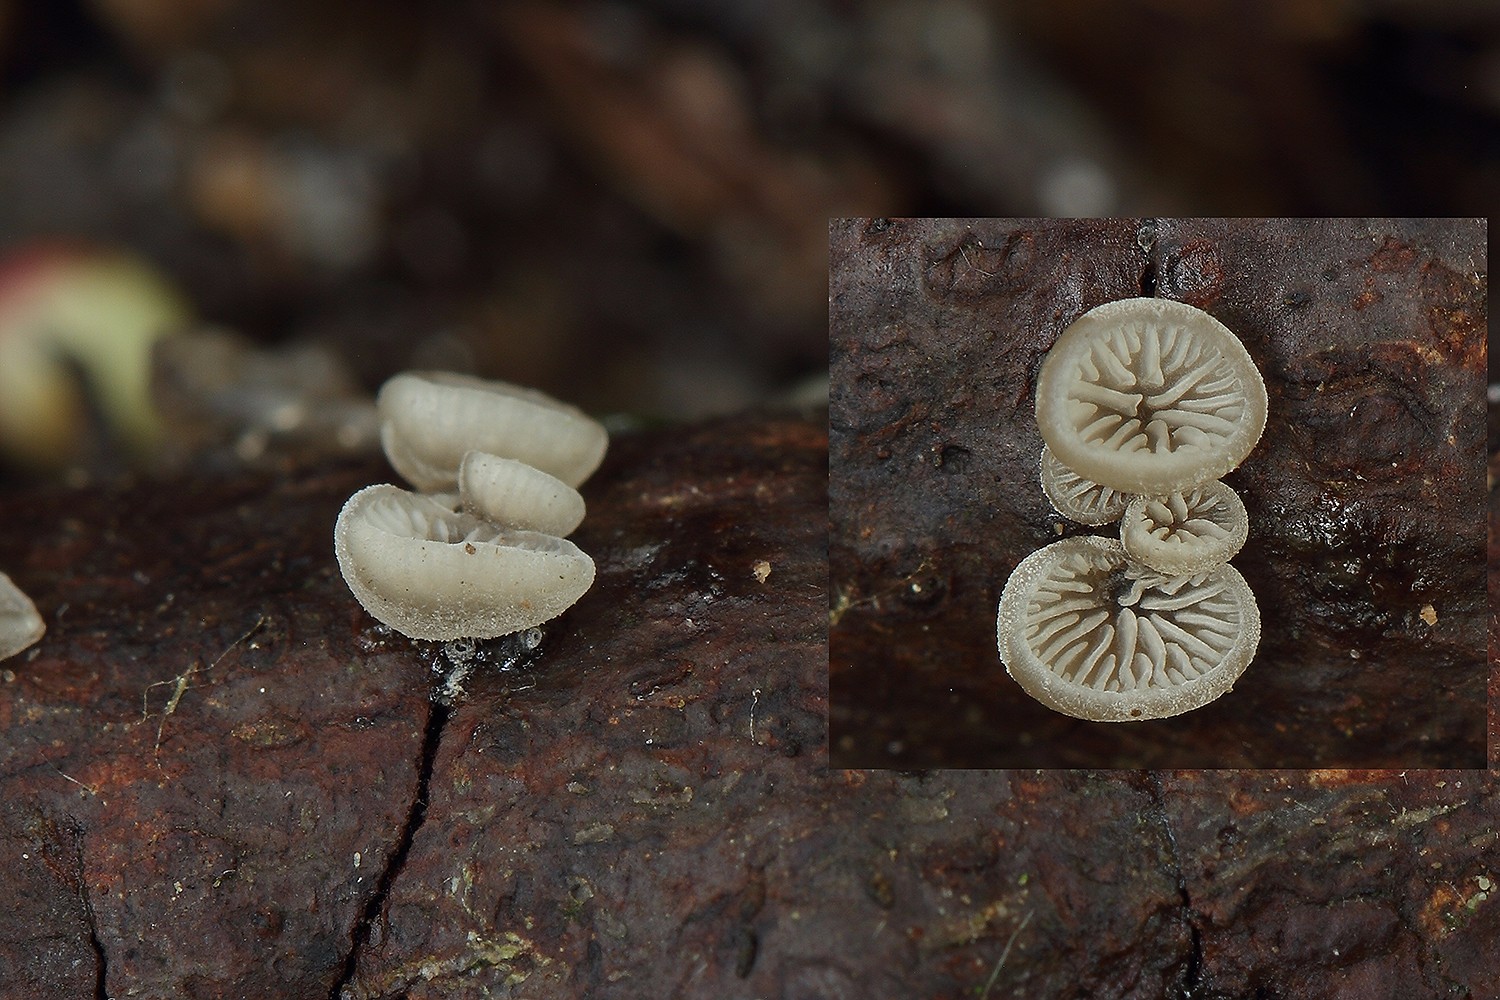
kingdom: Fungi
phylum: Basidiomycota
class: Agaricomycetes
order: Agaricales
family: Pleurotaceae
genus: Resupinatus
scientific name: Resupinatus applicatus
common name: lysfiltet barkhat
